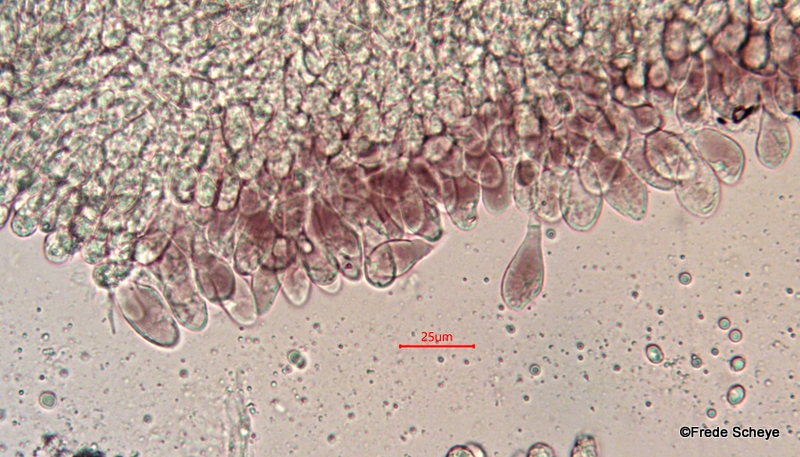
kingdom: Fungi
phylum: Basidiomycota
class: Agaricomycetes
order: Agaricales
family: Mycenaceae
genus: Mycena
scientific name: Mycena purpureofusca
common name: purpur-huesvamp
